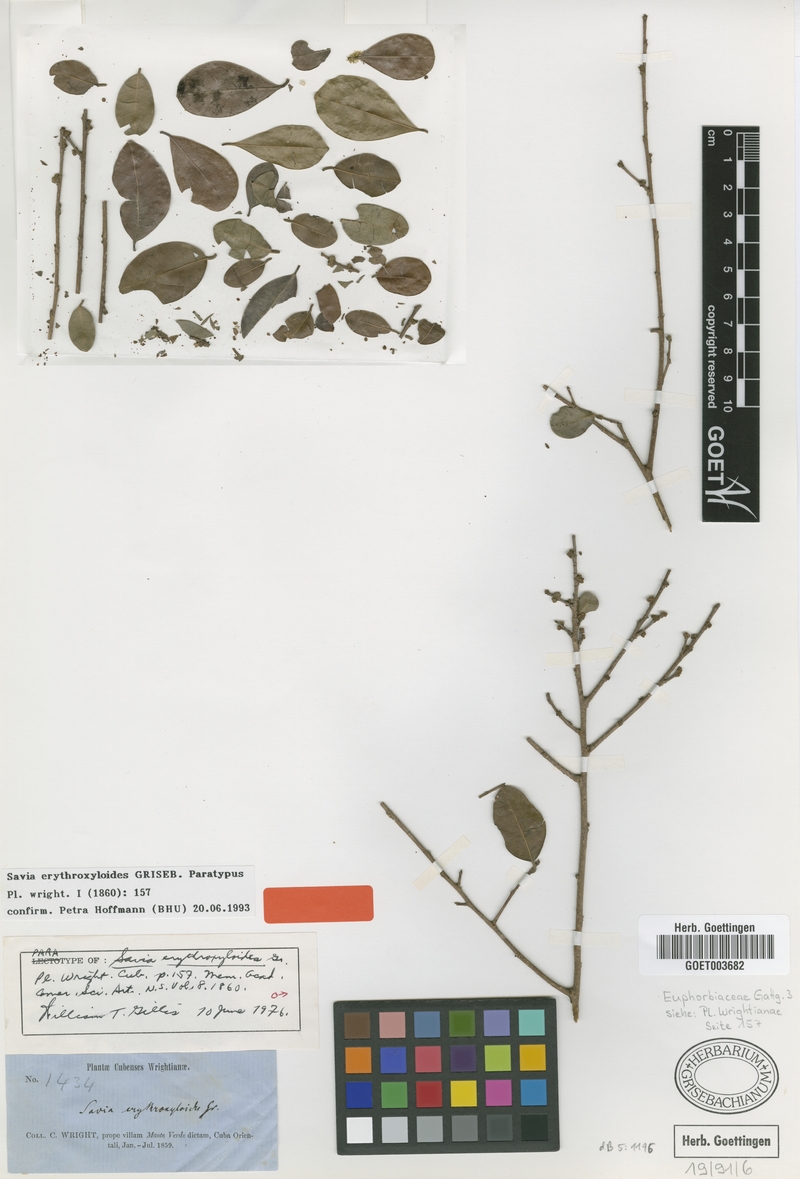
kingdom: Plantae
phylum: Tracheophyta
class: Magnoliopsida
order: Malpighiales
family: Phyllanthaceae
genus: Heterosavia
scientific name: Heterosavia erythroxyloides
